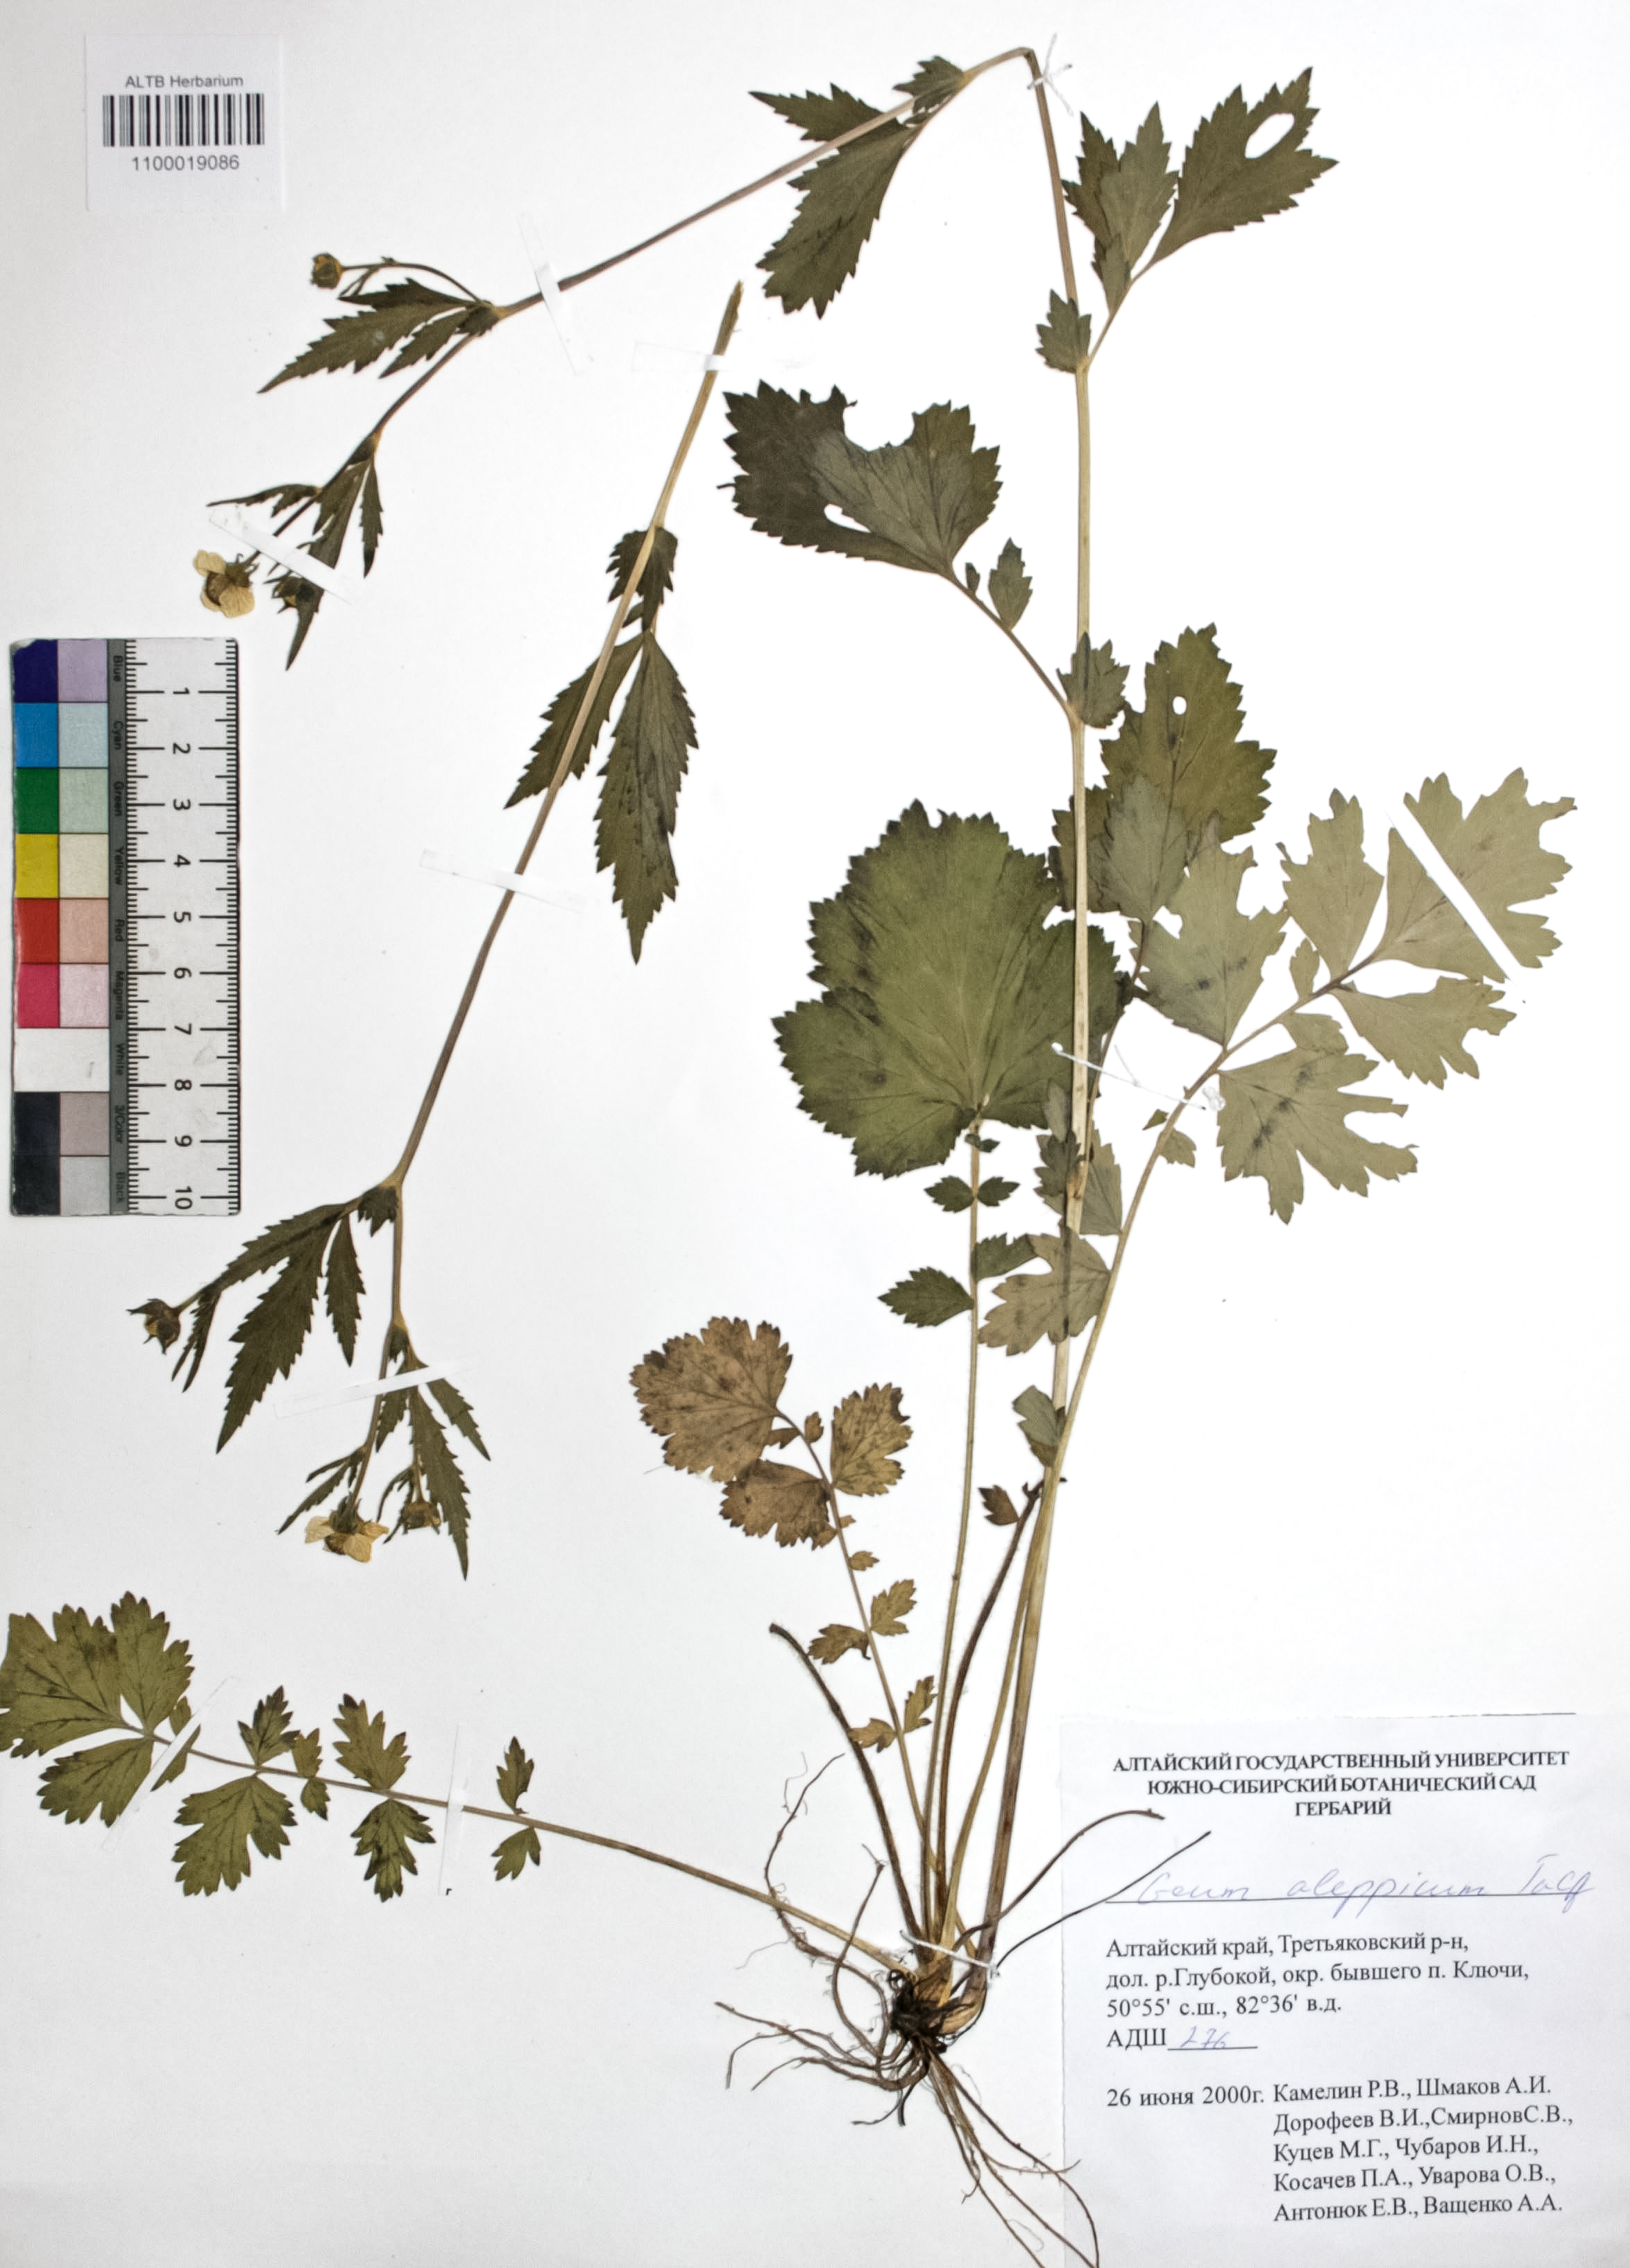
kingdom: Plantae
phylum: Tracheophyta
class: Magnoliopsida
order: Rosales
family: Rosaceae
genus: Geum
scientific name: Geum aleppicum
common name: Yellow avens
